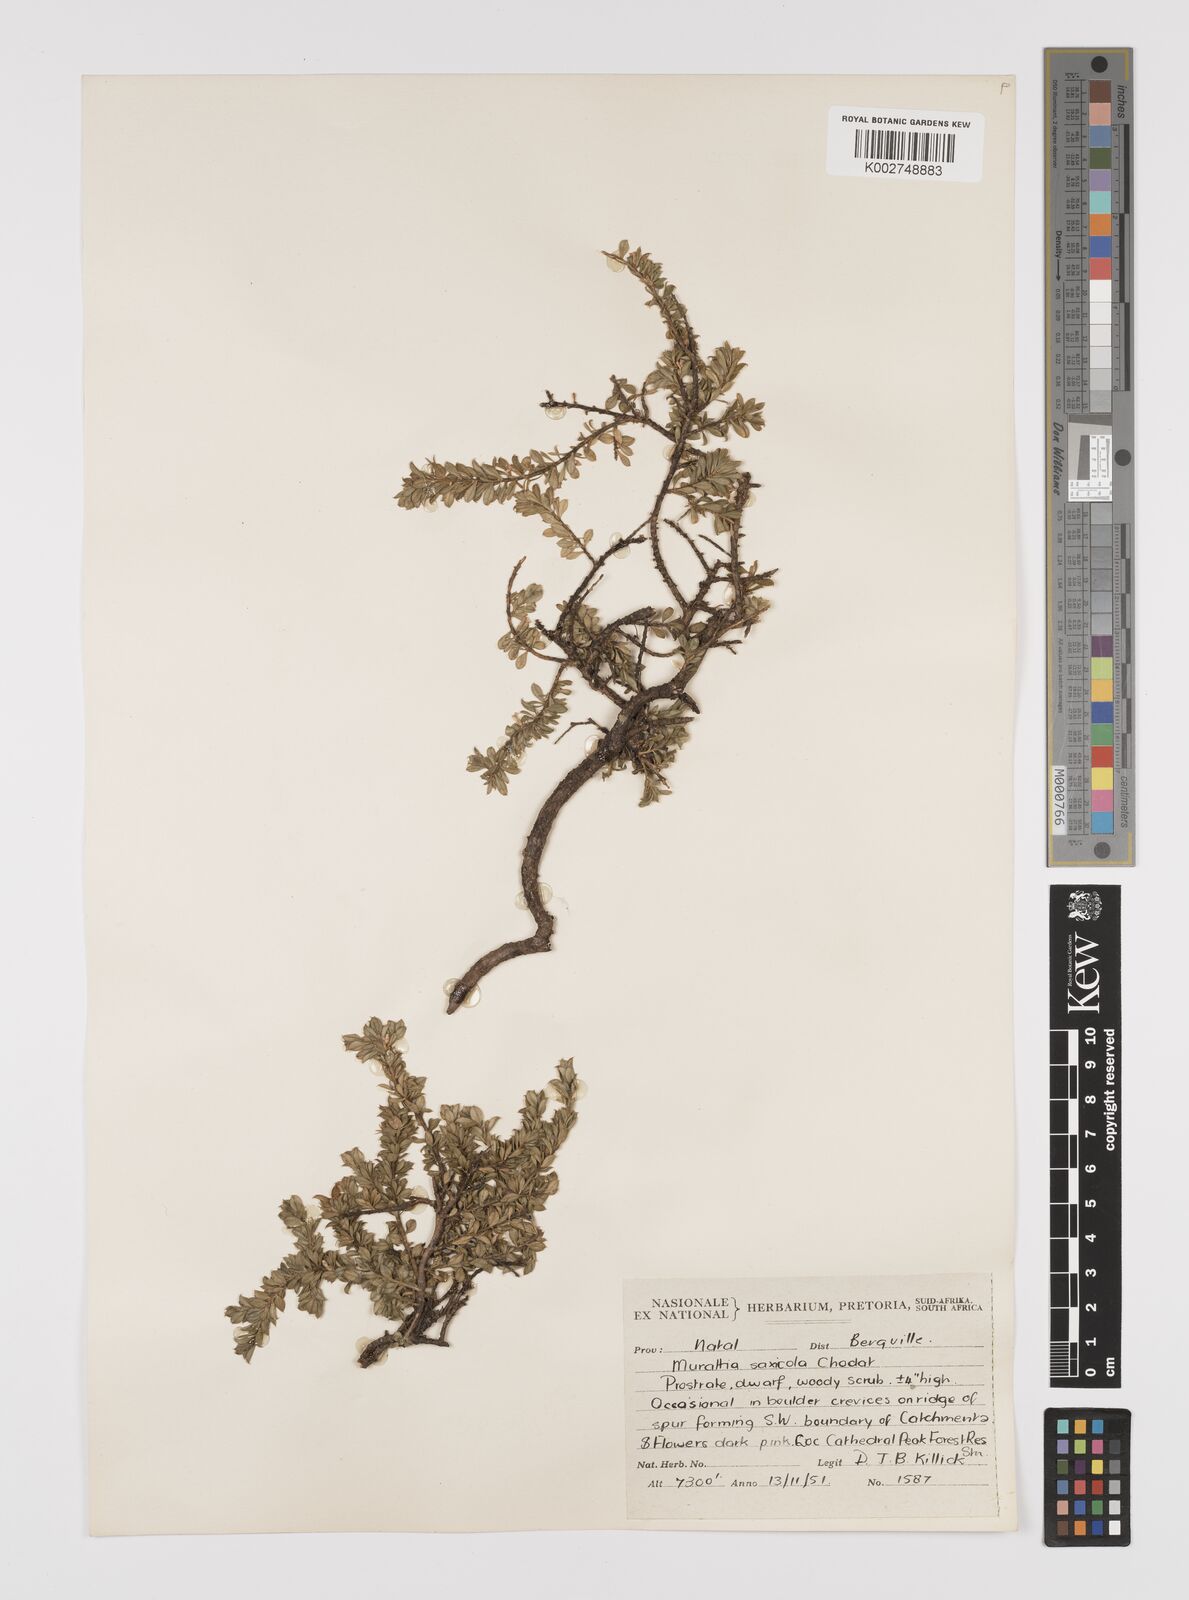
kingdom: Plantae
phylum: Tracheophyta
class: Magnoliopsida
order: Fabales
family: Polygalaceae
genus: Muraltia
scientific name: Muraltia saxicola
